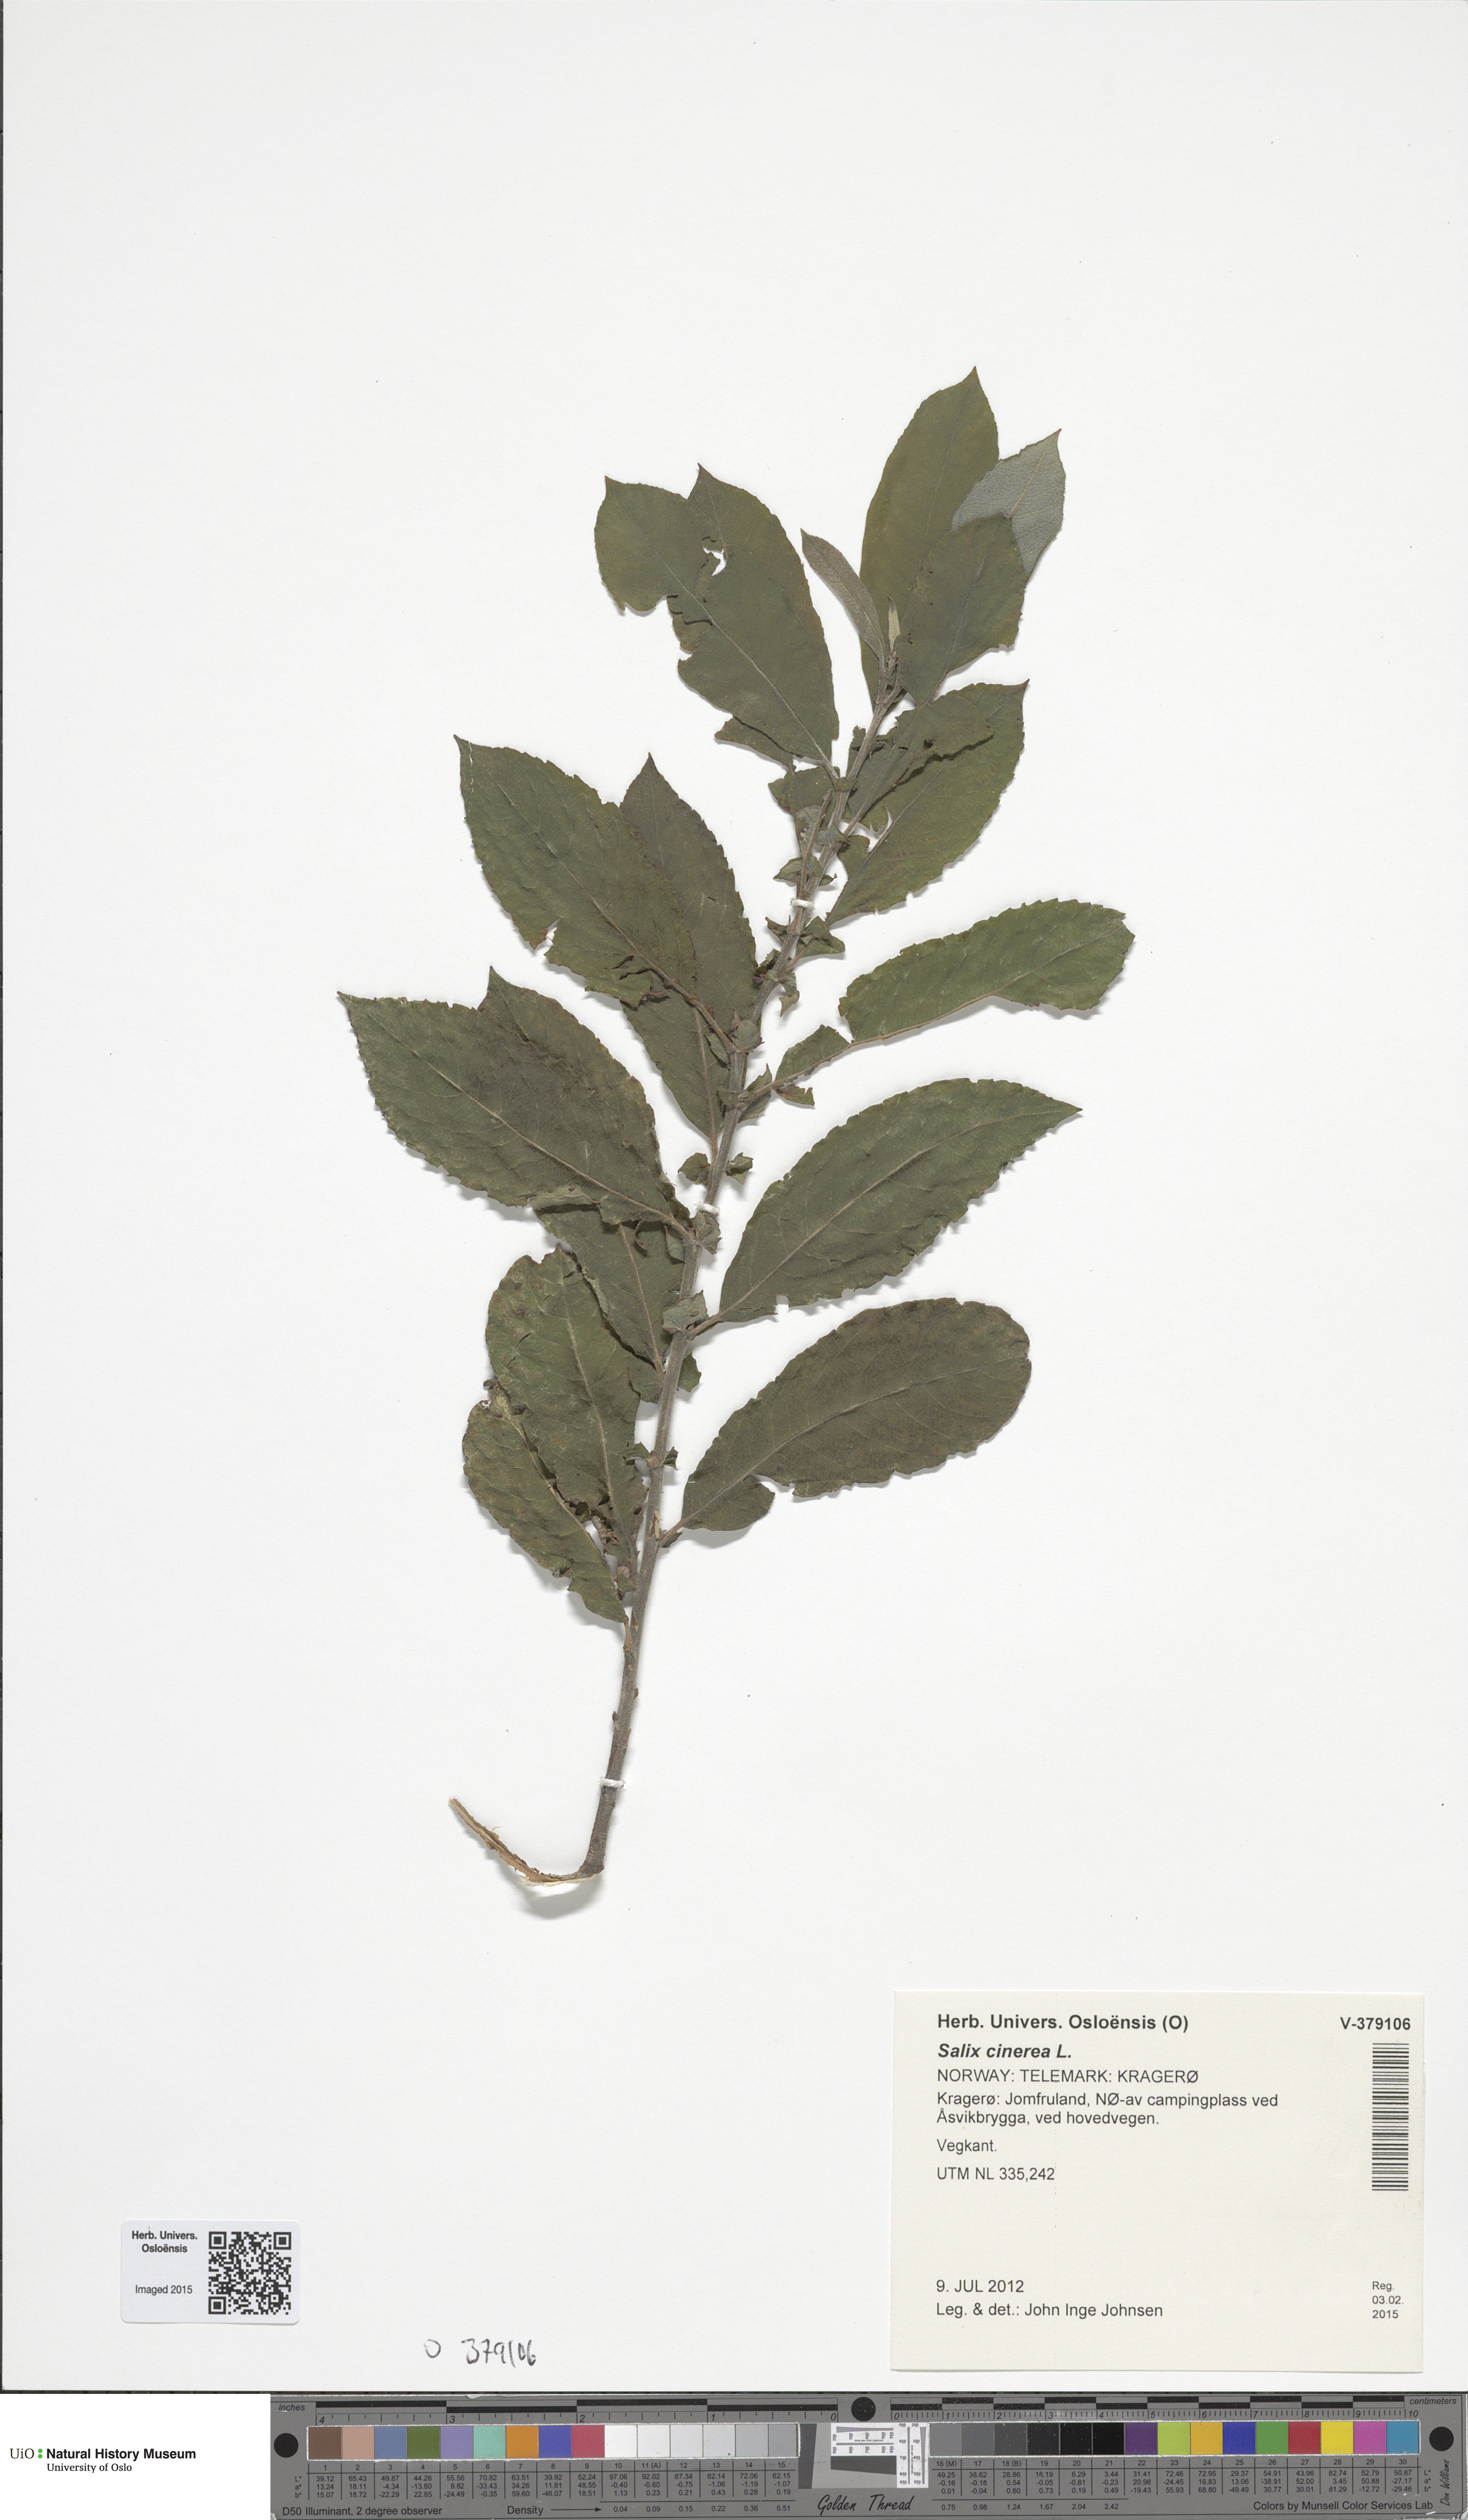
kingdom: Plantae
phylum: Tracheophyta
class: Magnoliopsida
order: Malpighiales
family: Salicaceae
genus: Salix
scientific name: Salix aurita
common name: Eared willow
